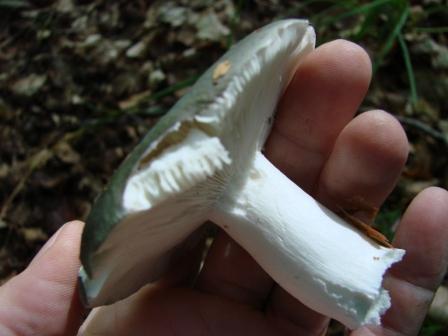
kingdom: Fungi
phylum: Basidiomycota
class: Agaricomycetes
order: Russulales
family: Russulaceae
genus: Russula
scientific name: Russula aeruginea
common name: græsgrøn skørhat
